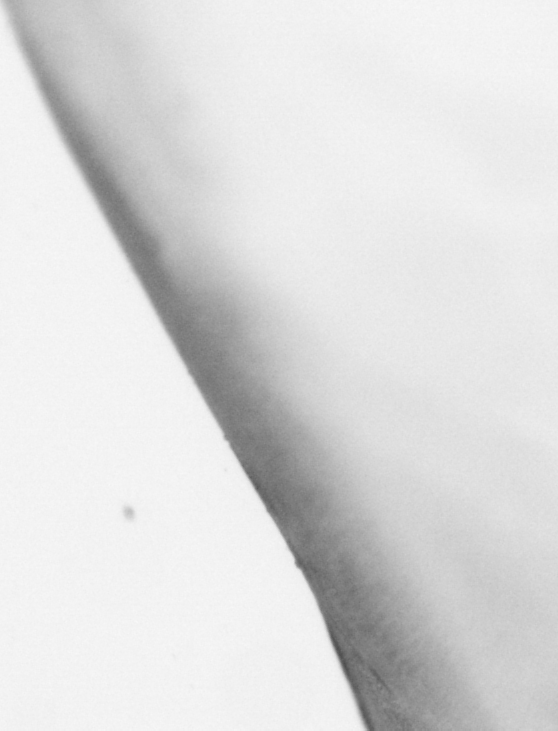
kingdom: Animalia
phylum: Chordata
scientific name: Chordata
